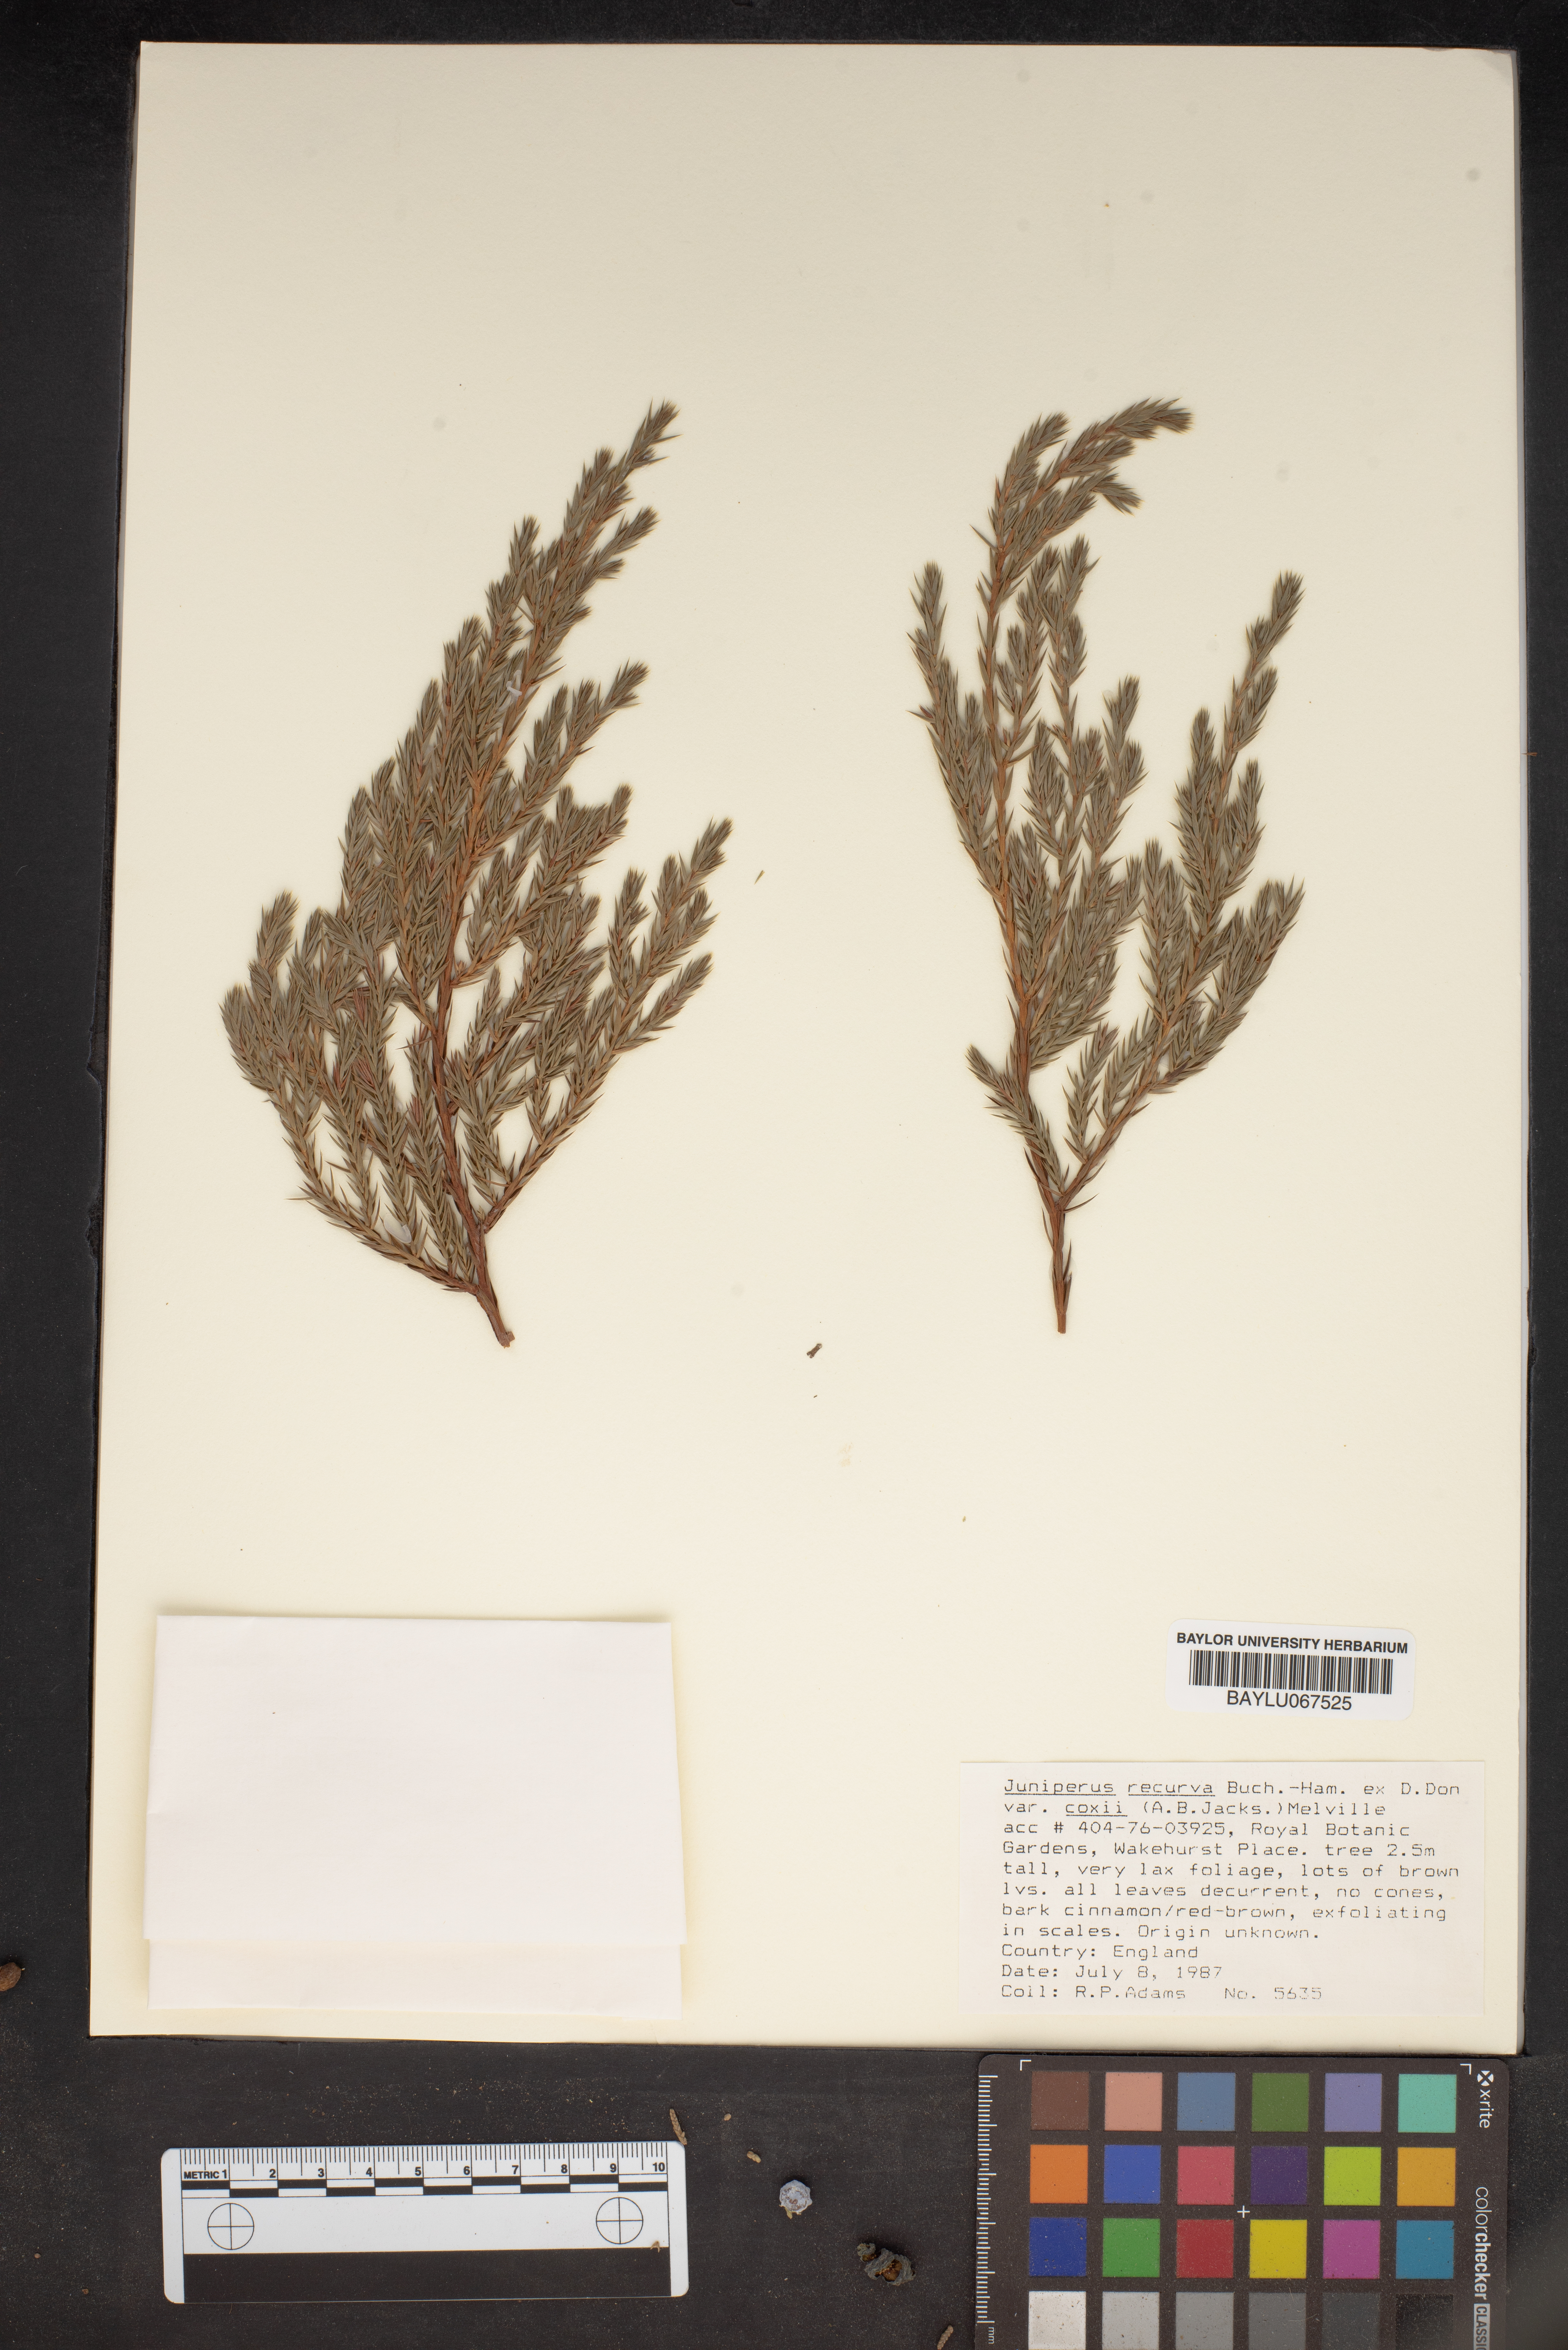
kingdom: Plantae
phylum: Tracheophyta
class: Pinopsida
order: Pinales
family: Cupressaceae
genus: Juniperus
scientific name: Juniperus recurva
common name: Drooping juniper
